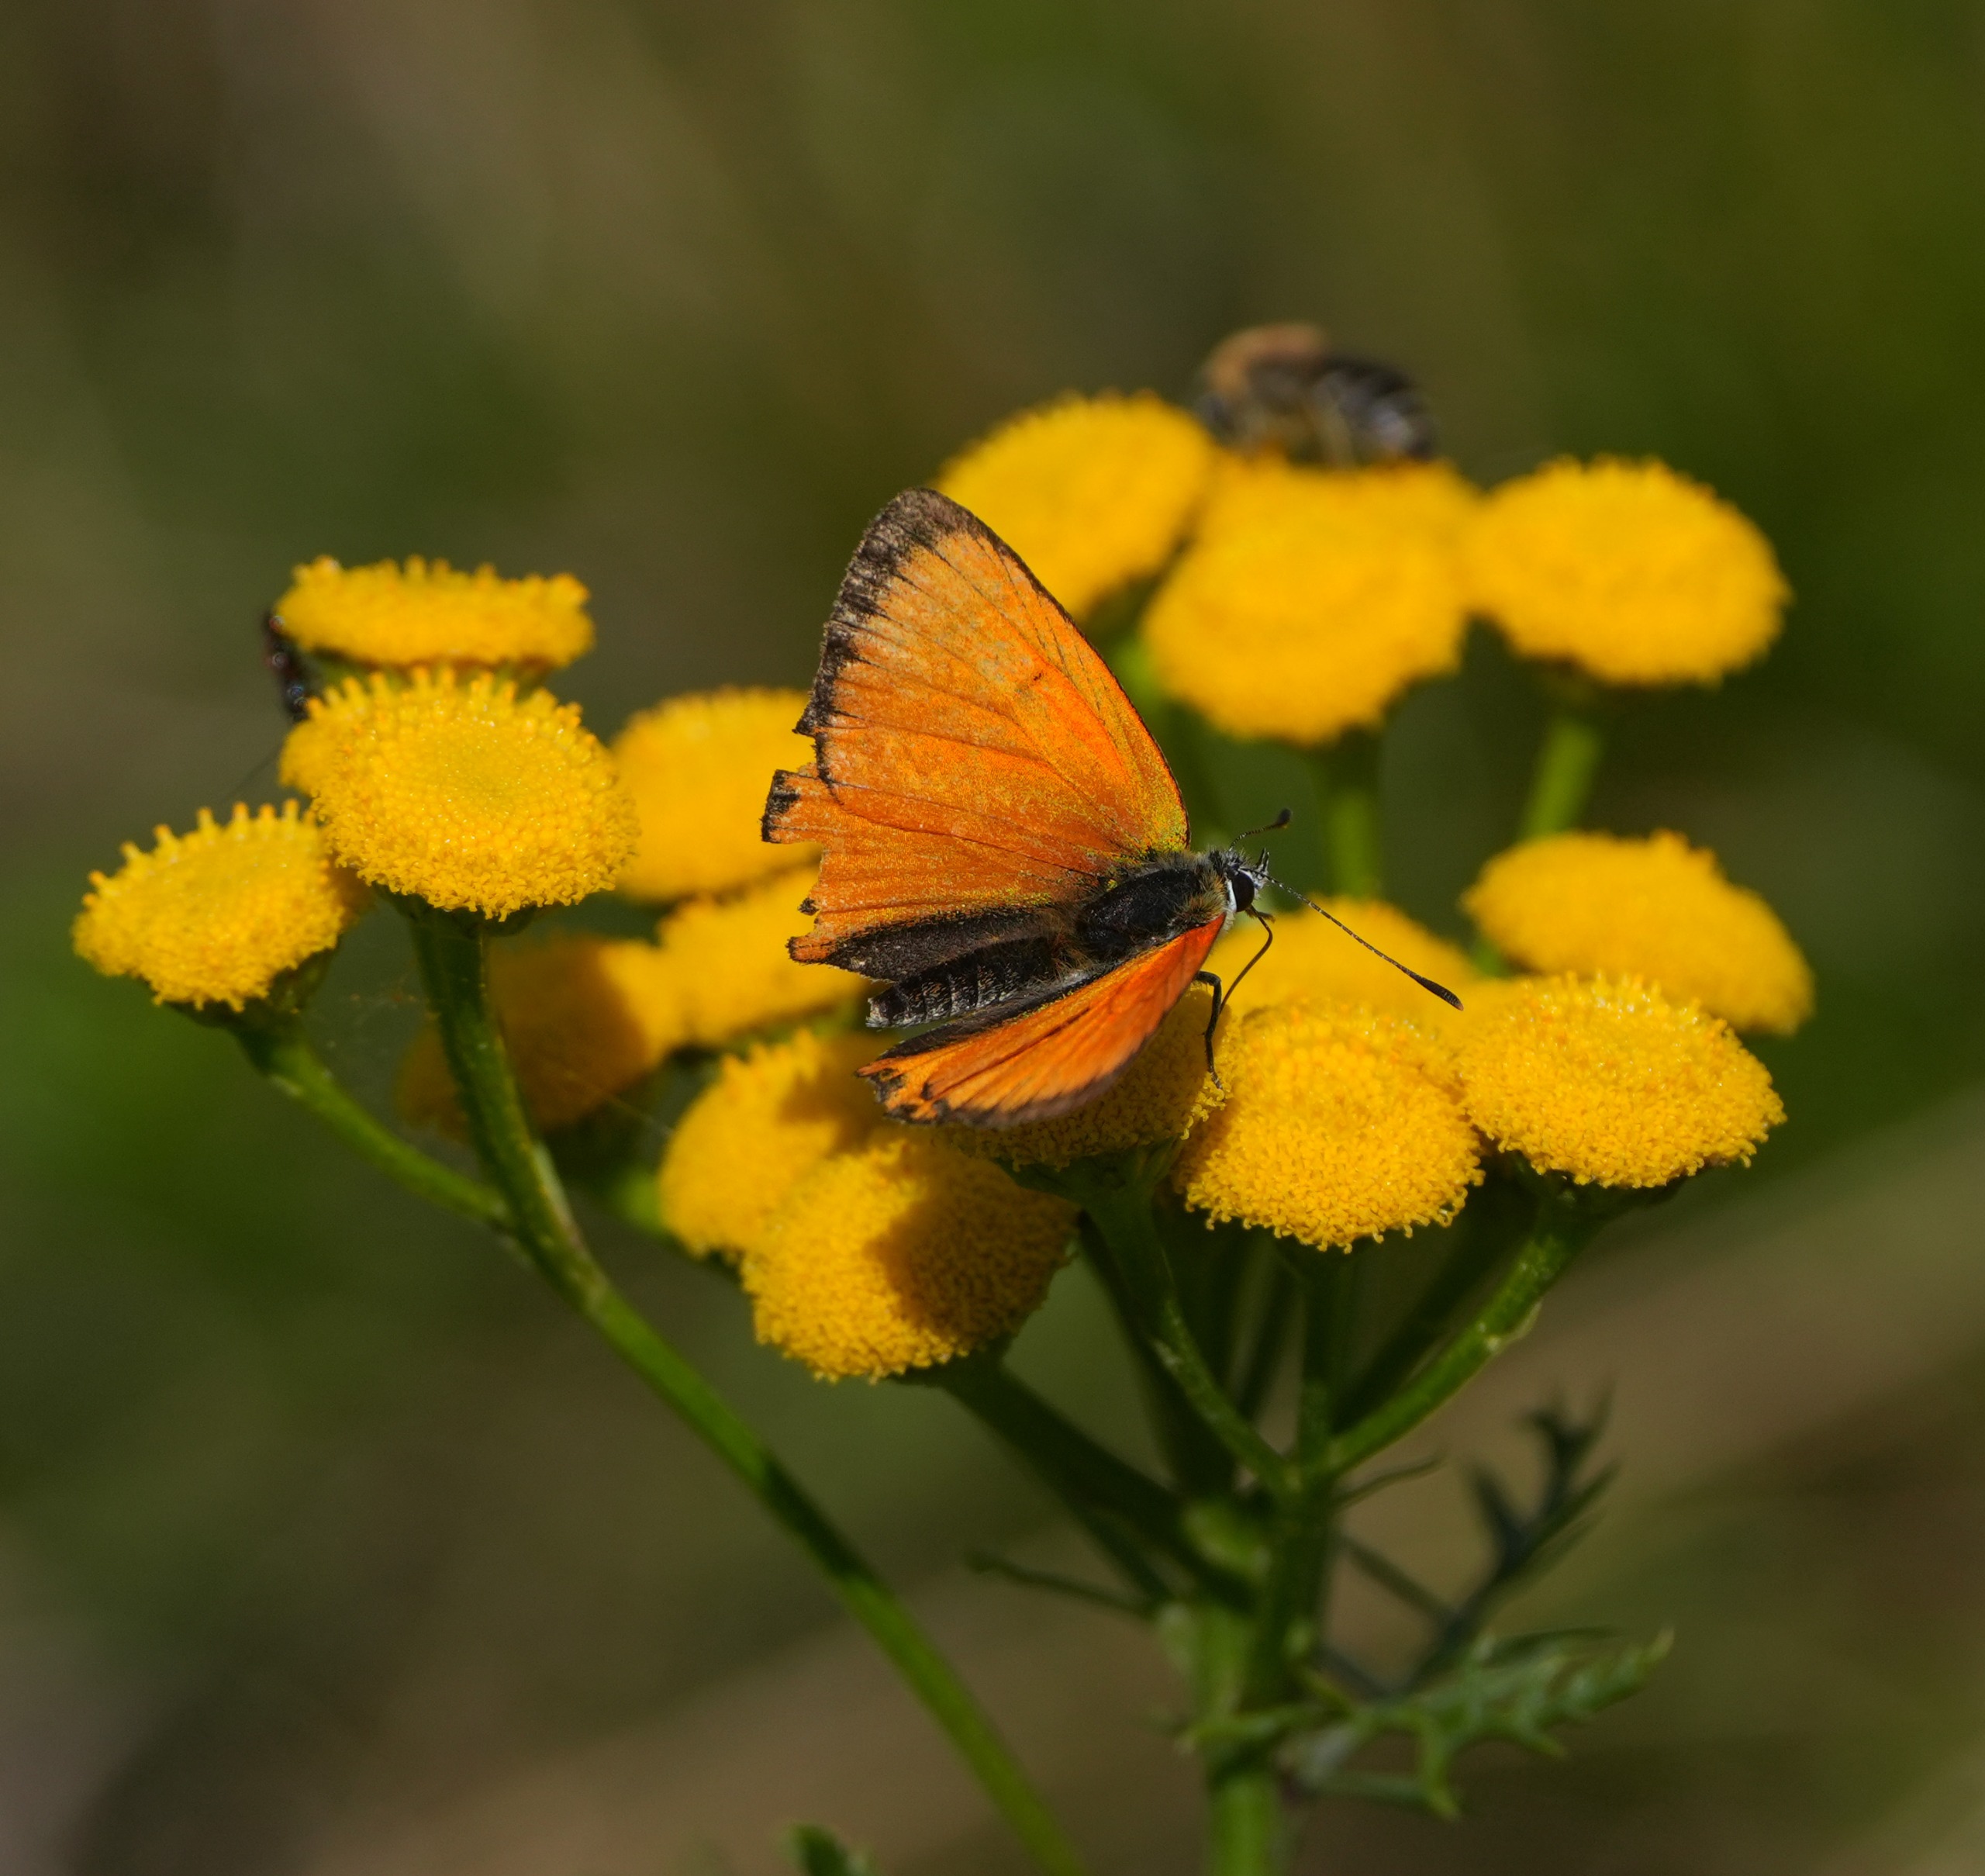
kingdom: Animalia
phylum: Arthropoda
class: Insecta
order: Lepidoptera
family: Lycaenidae
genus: Lycaena
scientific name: Lycaena virgaureae
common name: Dukatsommerfugl
